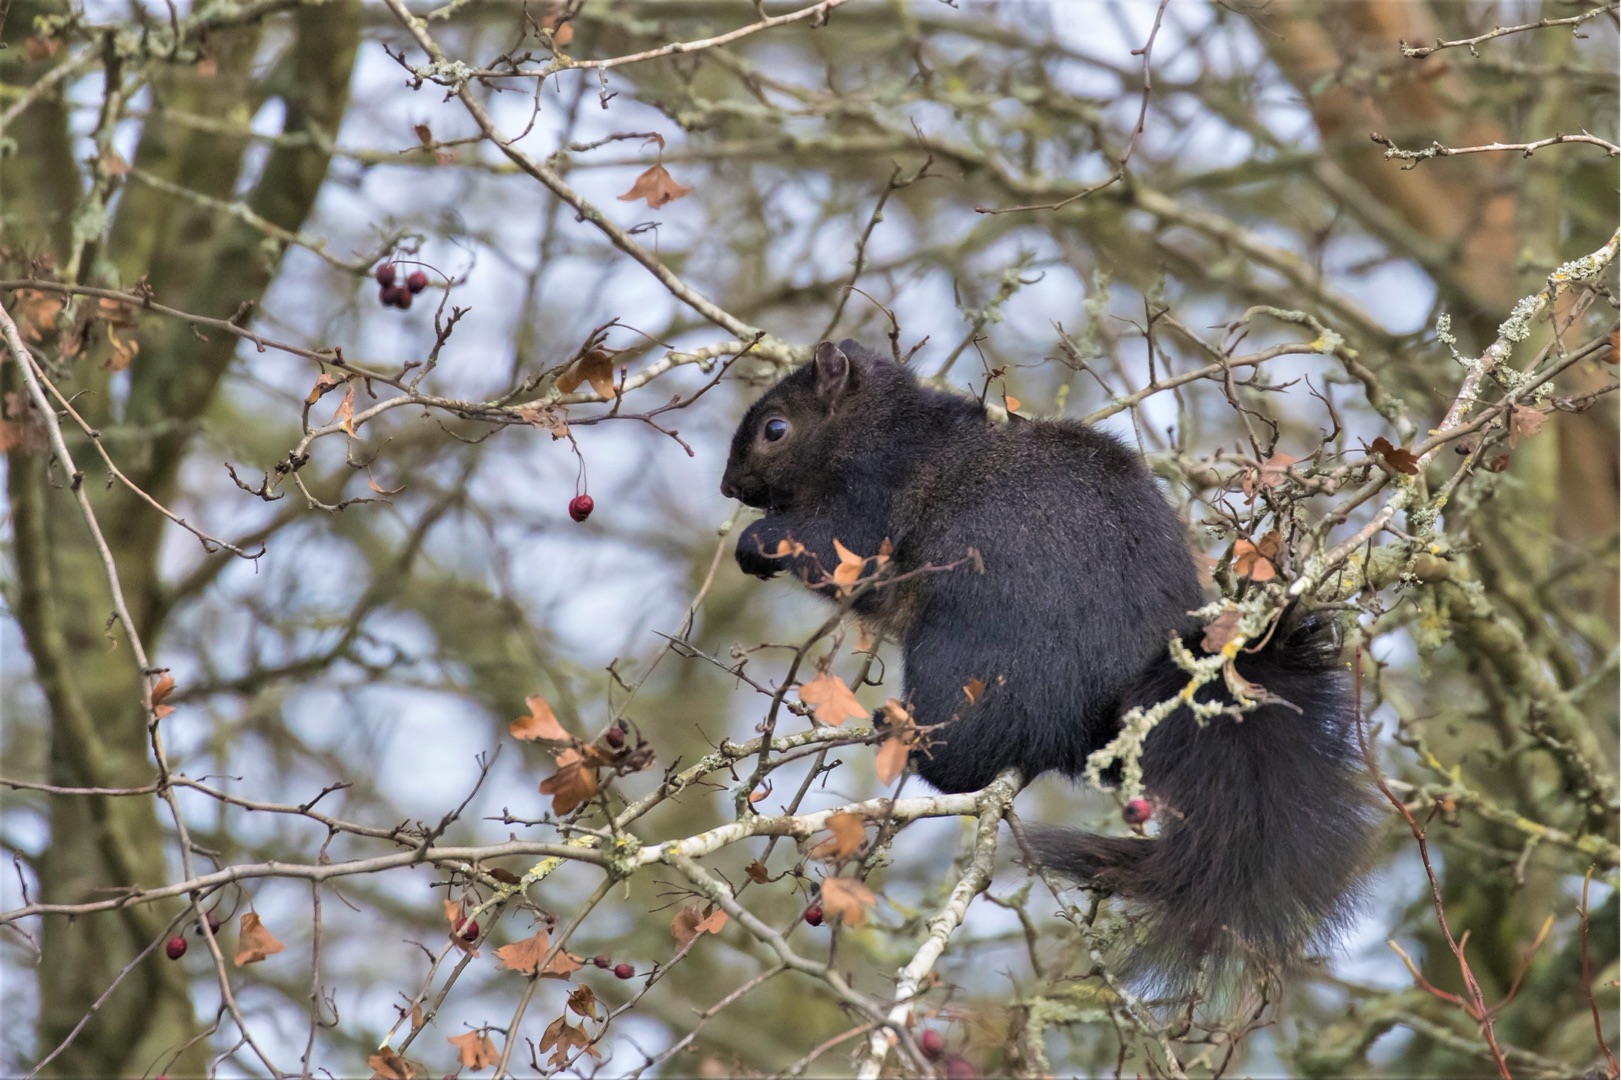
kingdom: Animalia
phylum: Chordata
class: Mammalia
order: Rodentia
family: Sciuridae
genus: Sciurus
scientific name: Sciurus vulgaris
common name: Egern
